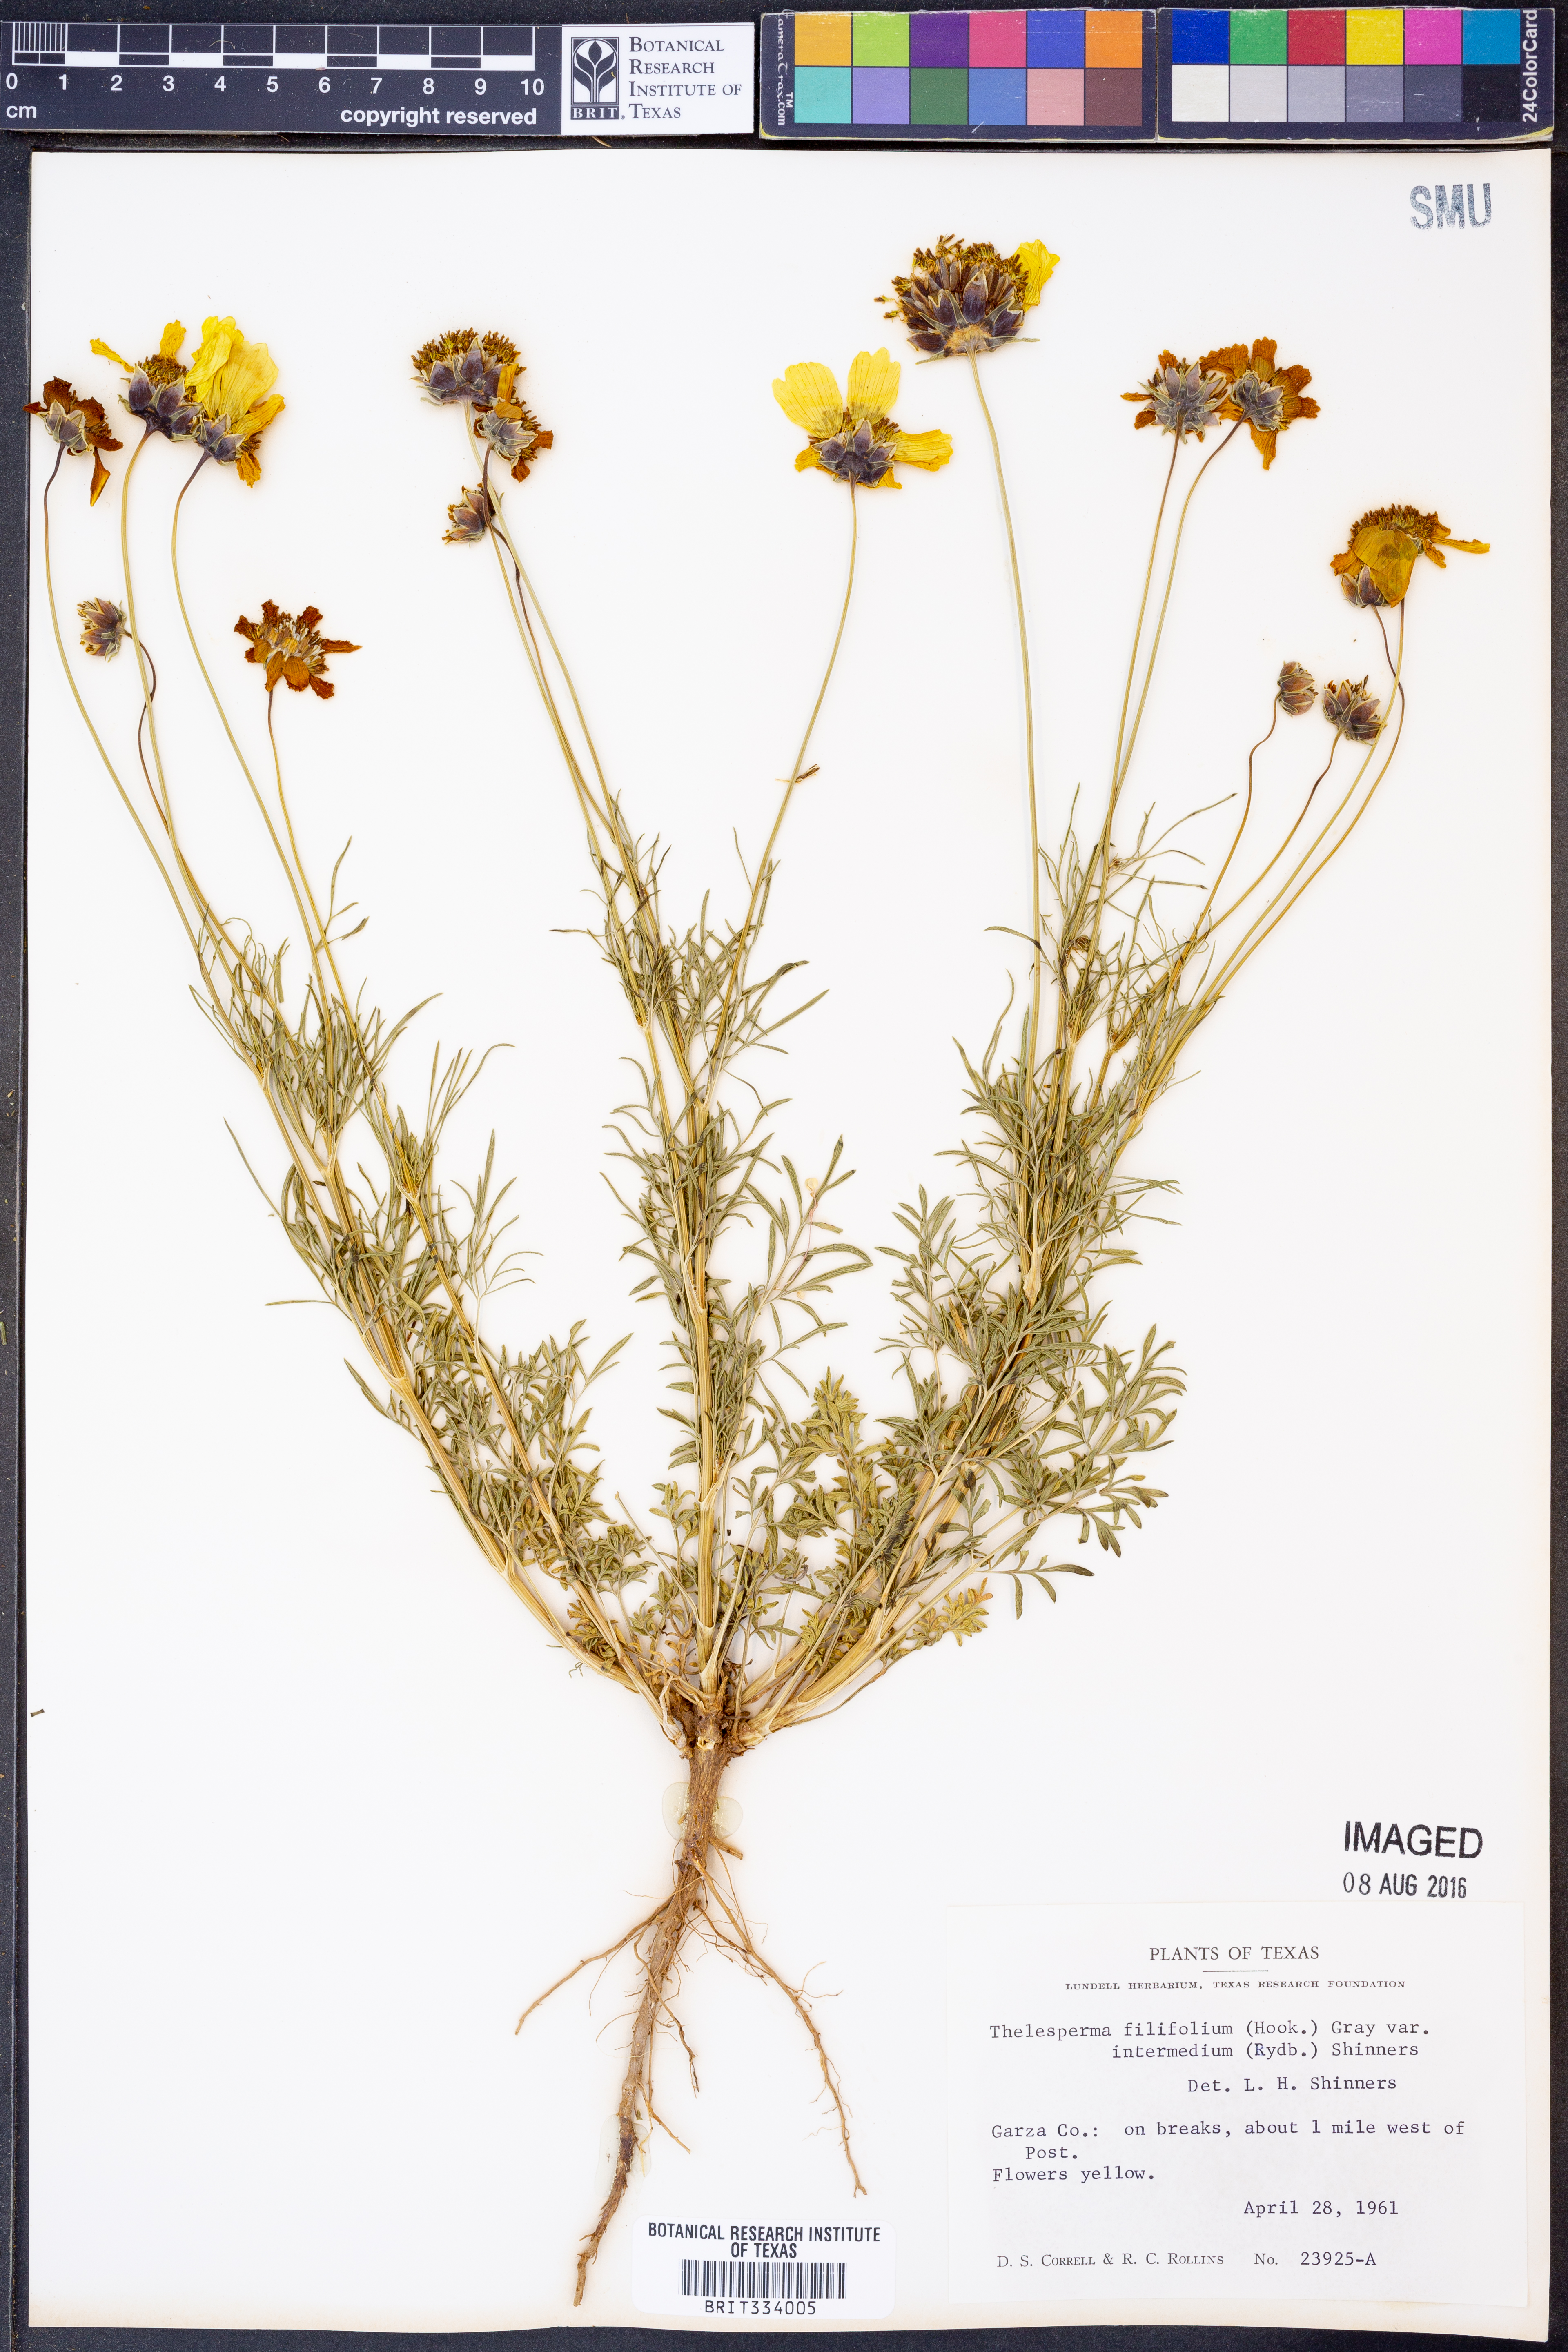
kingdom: Plantae
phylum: Tracheophyta
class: Magnoliopsida
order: Asterales
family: Asteraceae
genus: Thelesperma
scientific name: Thelesperma filifolium
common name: Stiff greenthread
